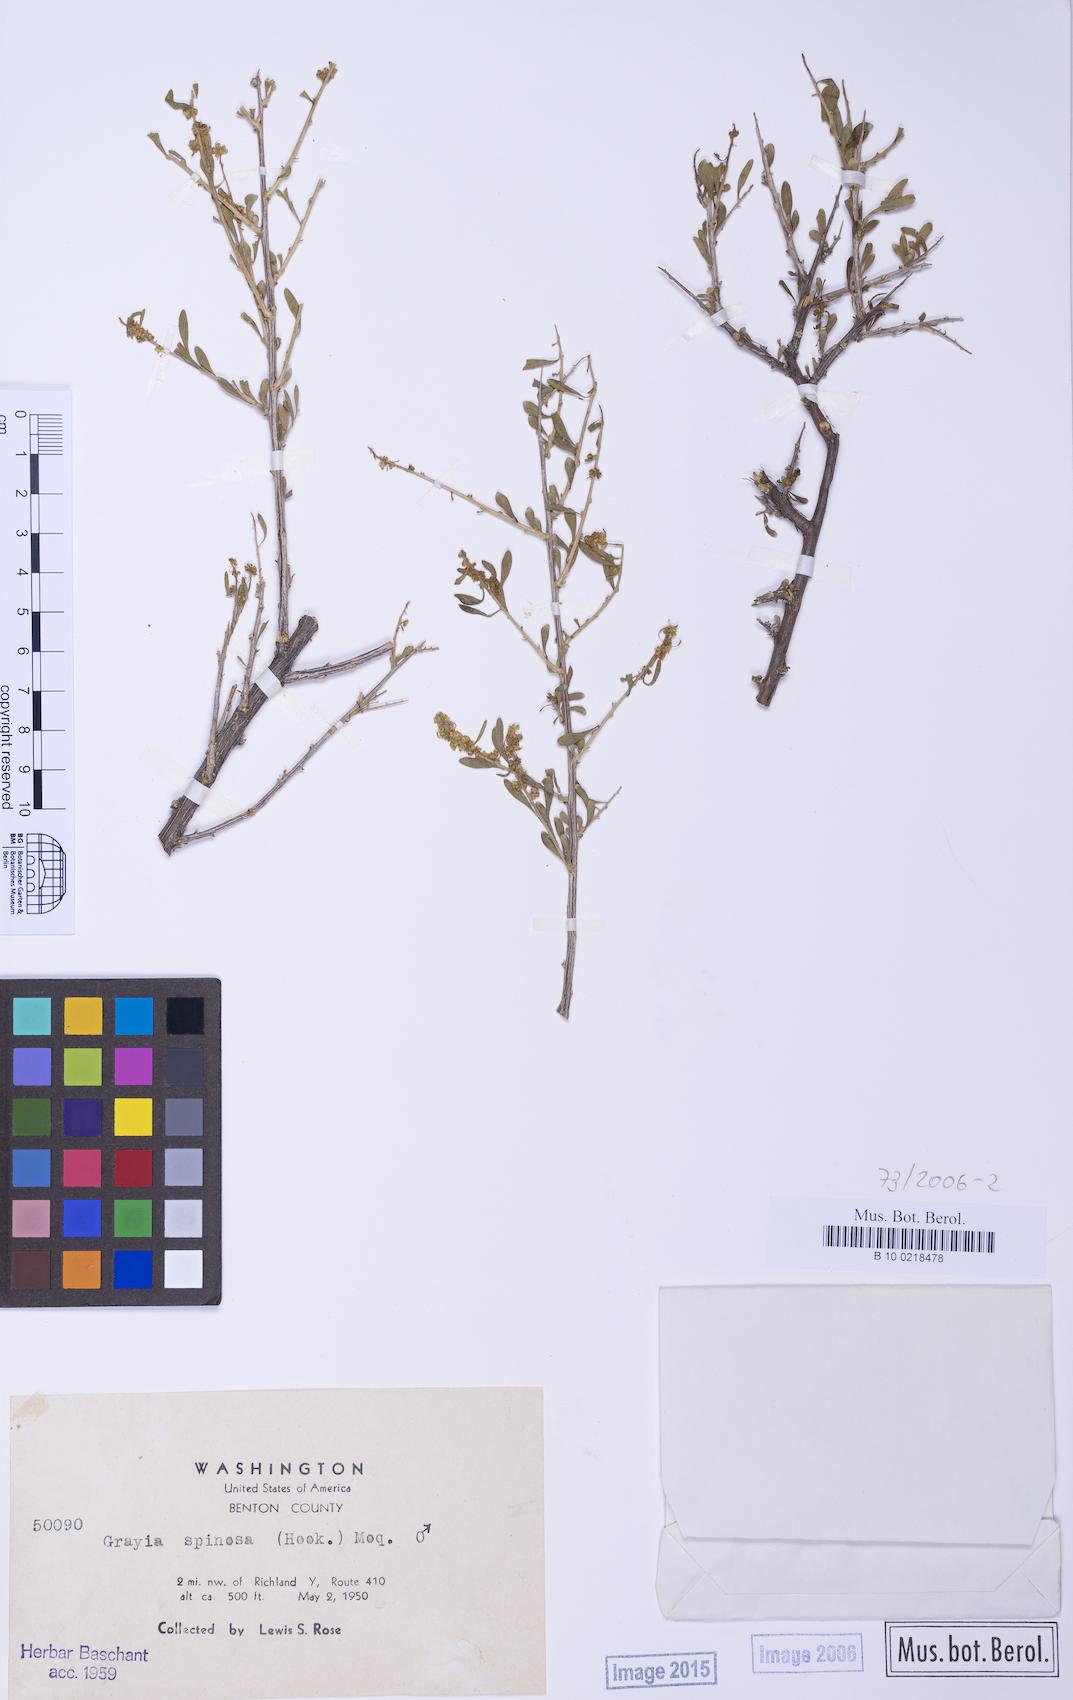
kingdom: Plantae
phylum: Tracheophyta
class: Magnoliopsida
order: Caryophyllales
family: Amaranthaceae
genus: Grayia
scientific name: Grayia spinosa
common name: Spiny hopsage
